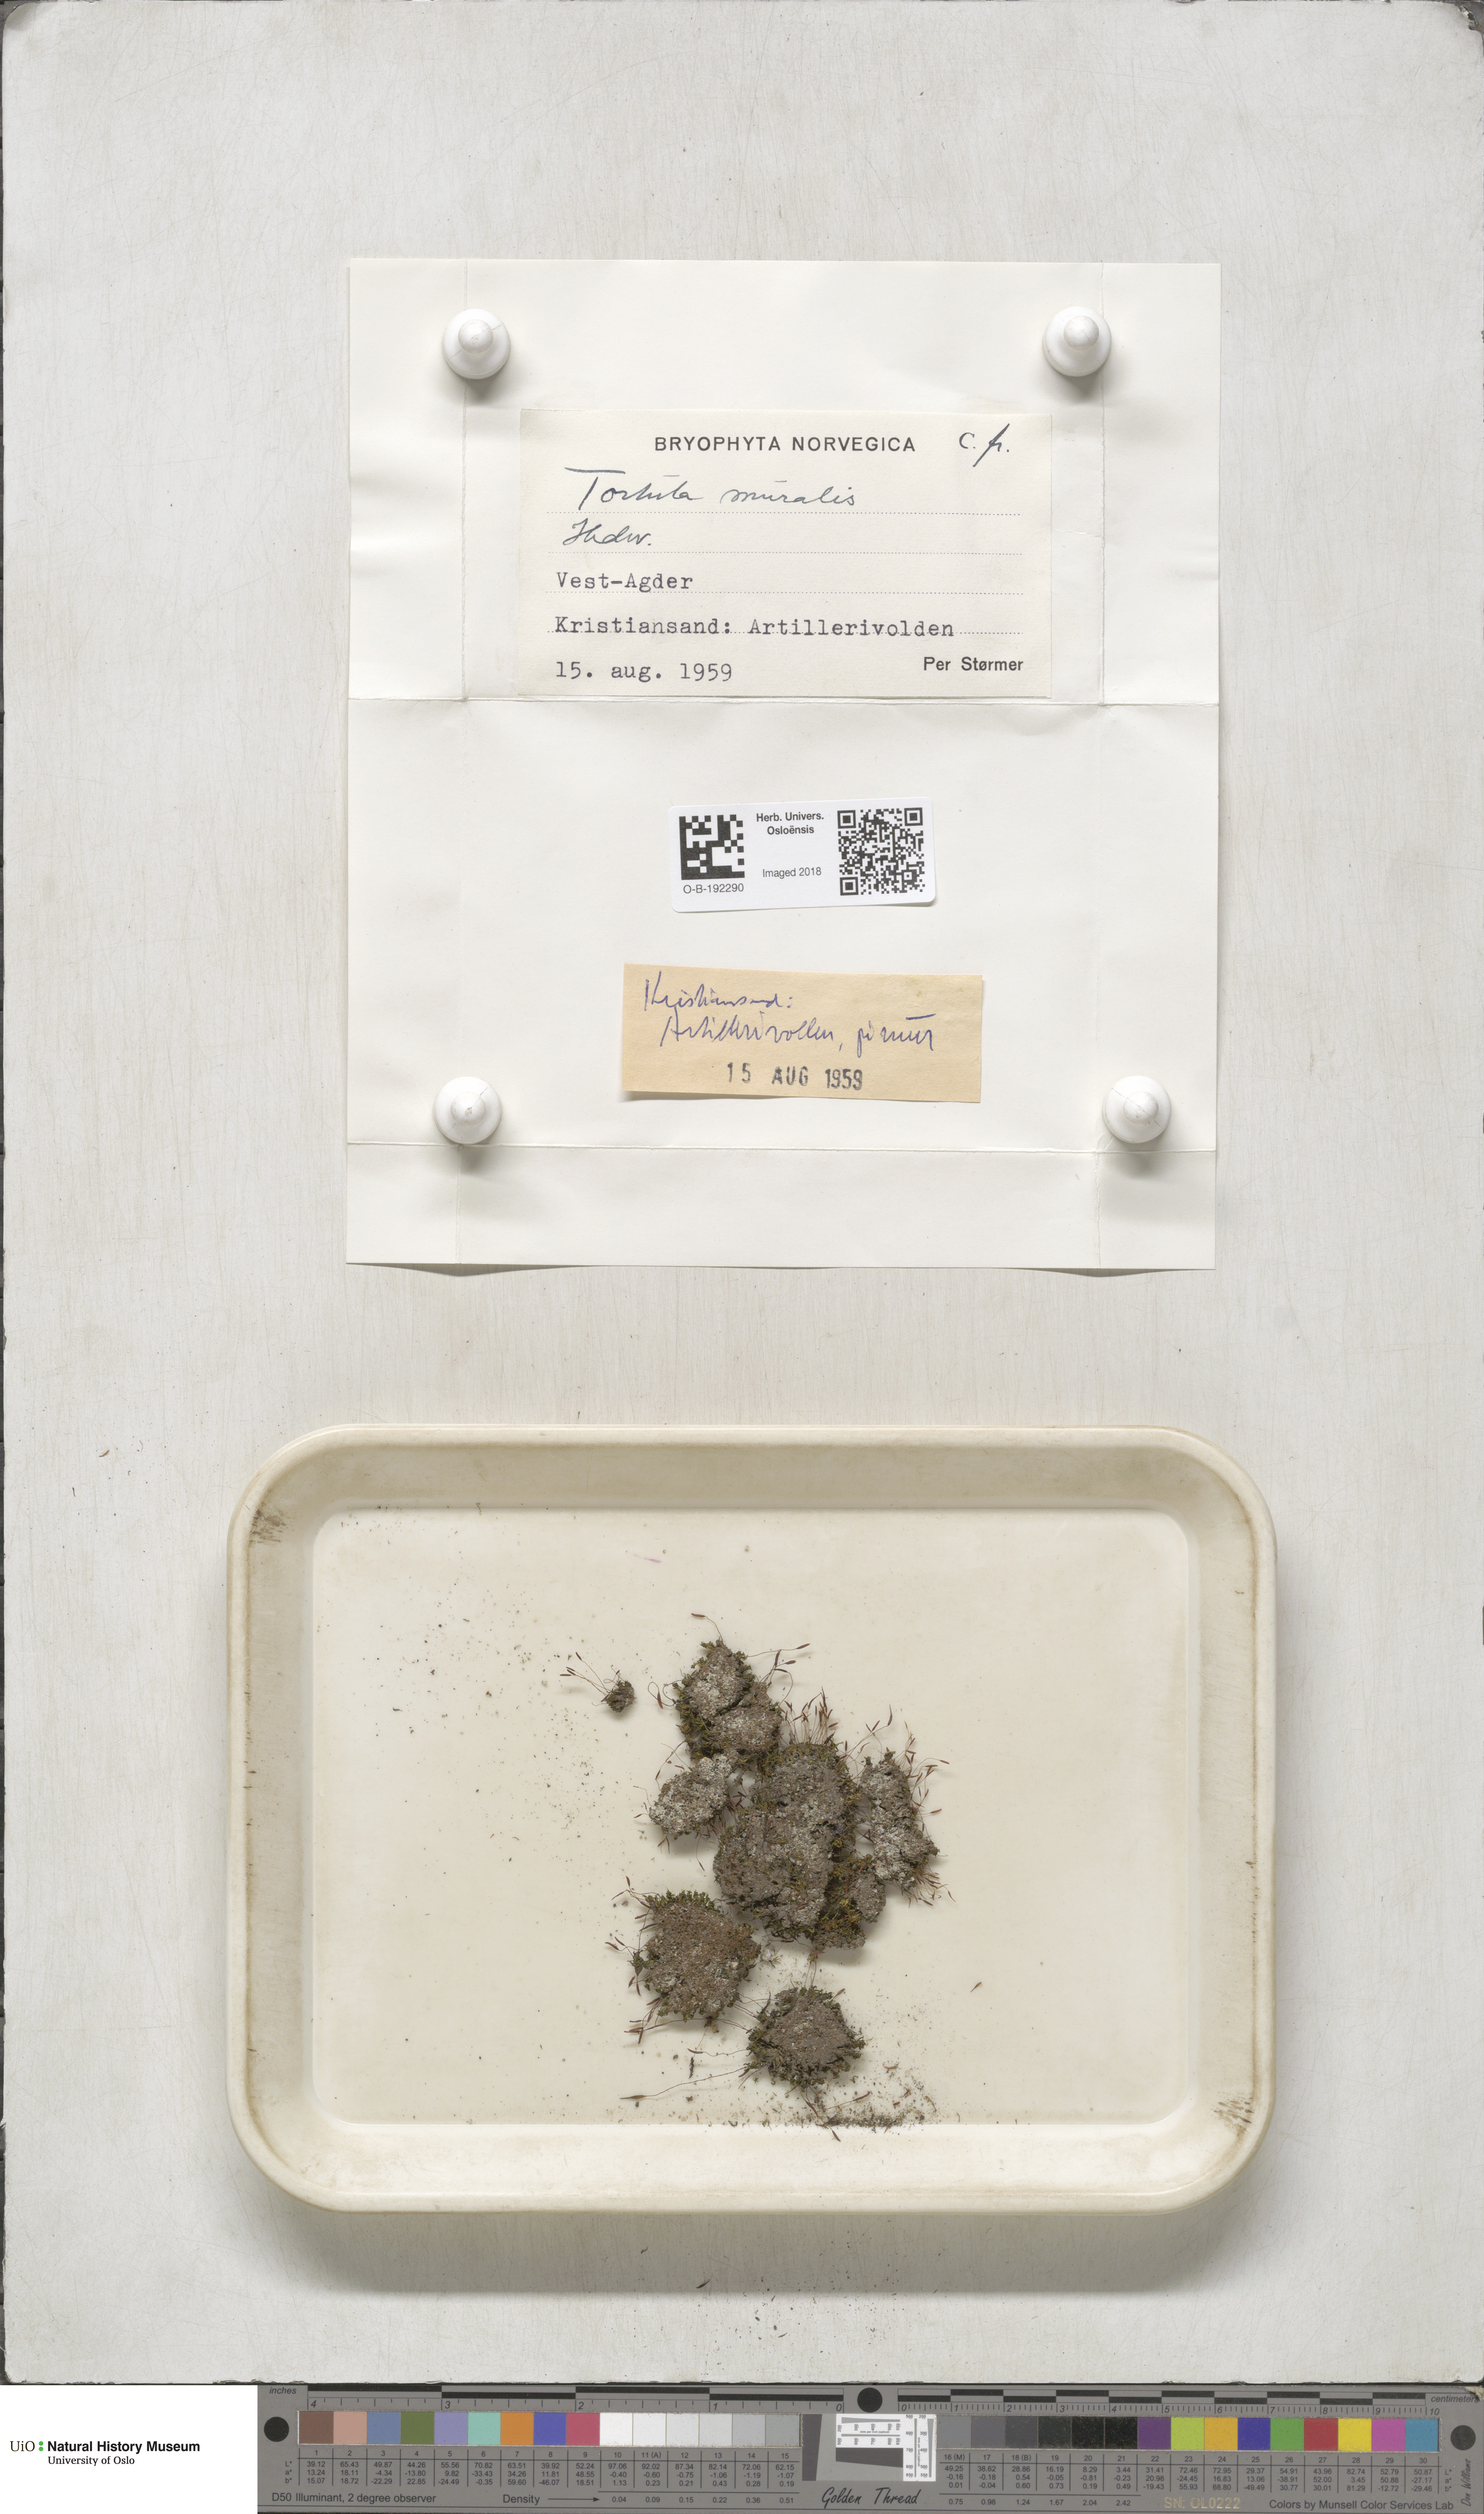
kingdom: Plantae
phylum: Bryophyta
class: Bryopsida
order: Pottiales
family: Pottiaceae
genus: Tortula
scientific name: Tortula muralis
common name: Wall screw-moss
